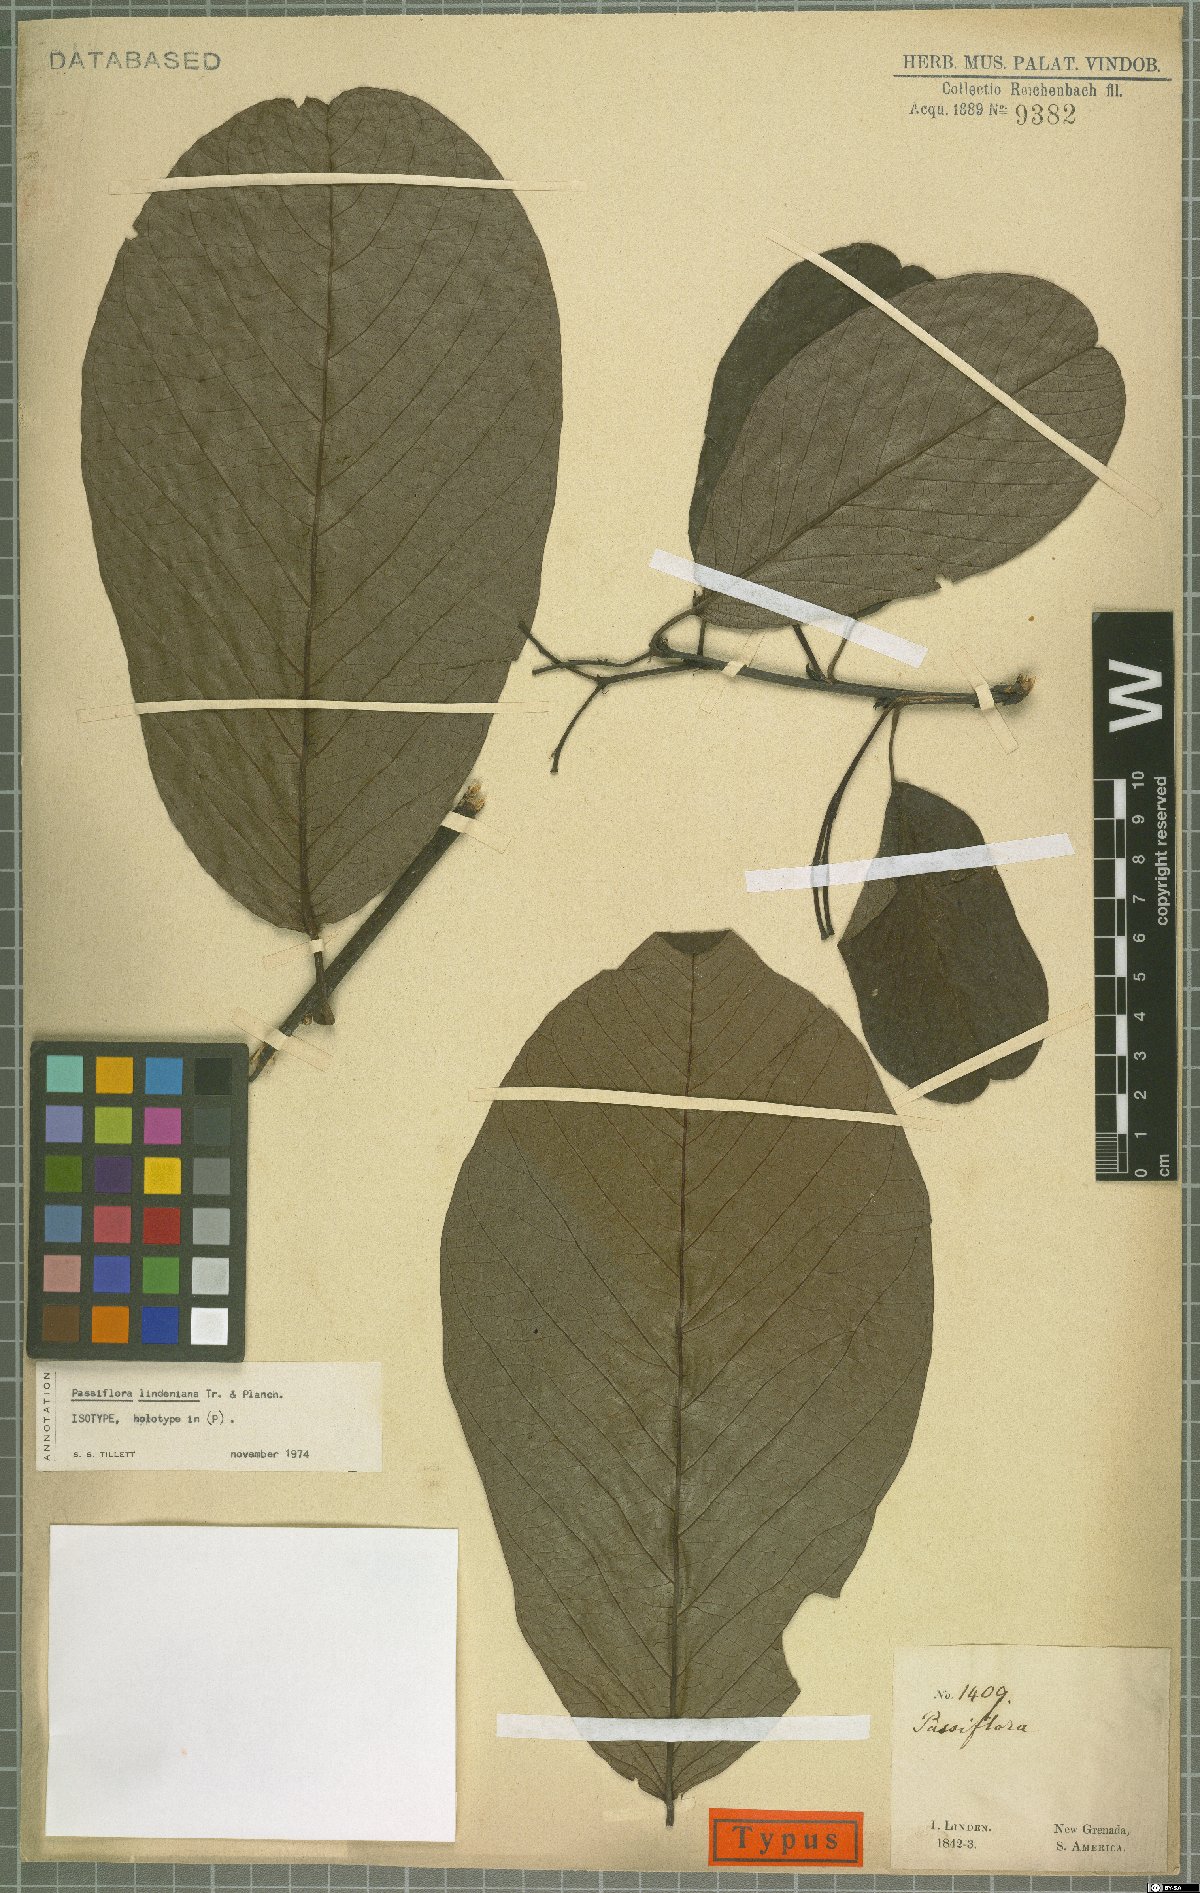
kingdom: Plantae
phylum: Tracheophyta
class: Magnoliopsida
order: Malpighiales
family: Passifloraceae
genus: Passiflora
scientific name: Passiflora lindeniana
